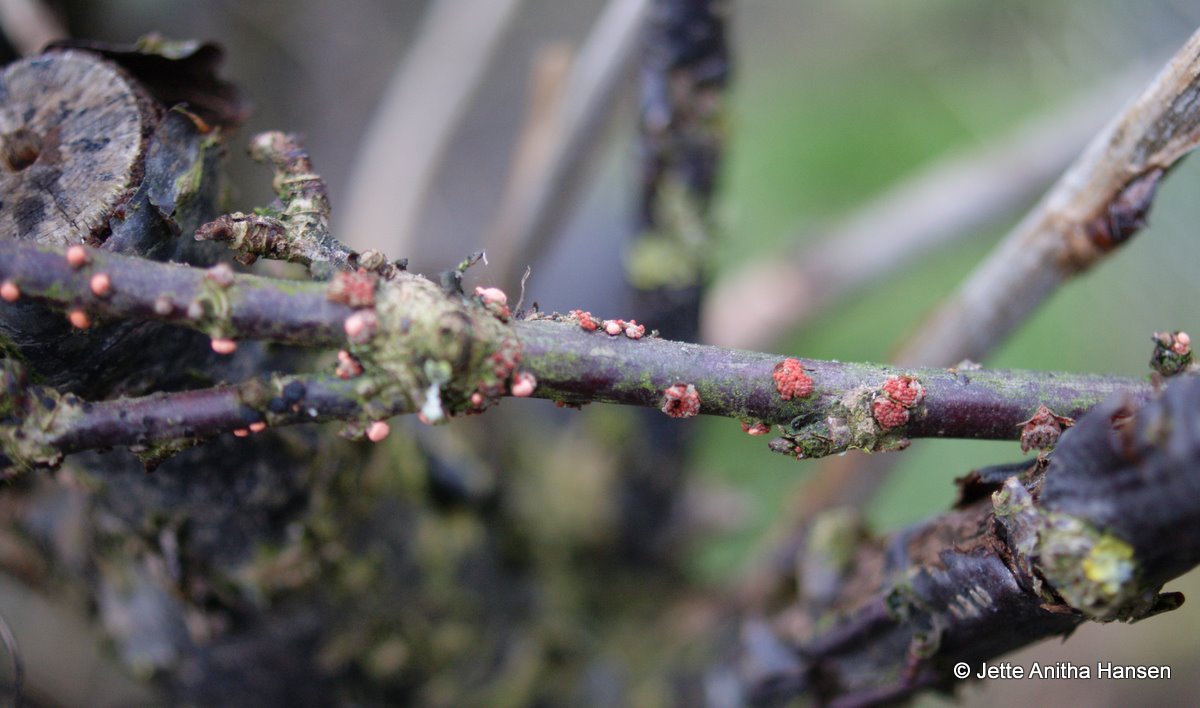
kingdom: Fungi
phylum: Ascomycota
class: Sordariomycetes
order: Hypocreales
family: Nectriaceae
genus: Nectria
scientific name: Nectria cinnabarina
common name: almindelig cinnobersvamp
